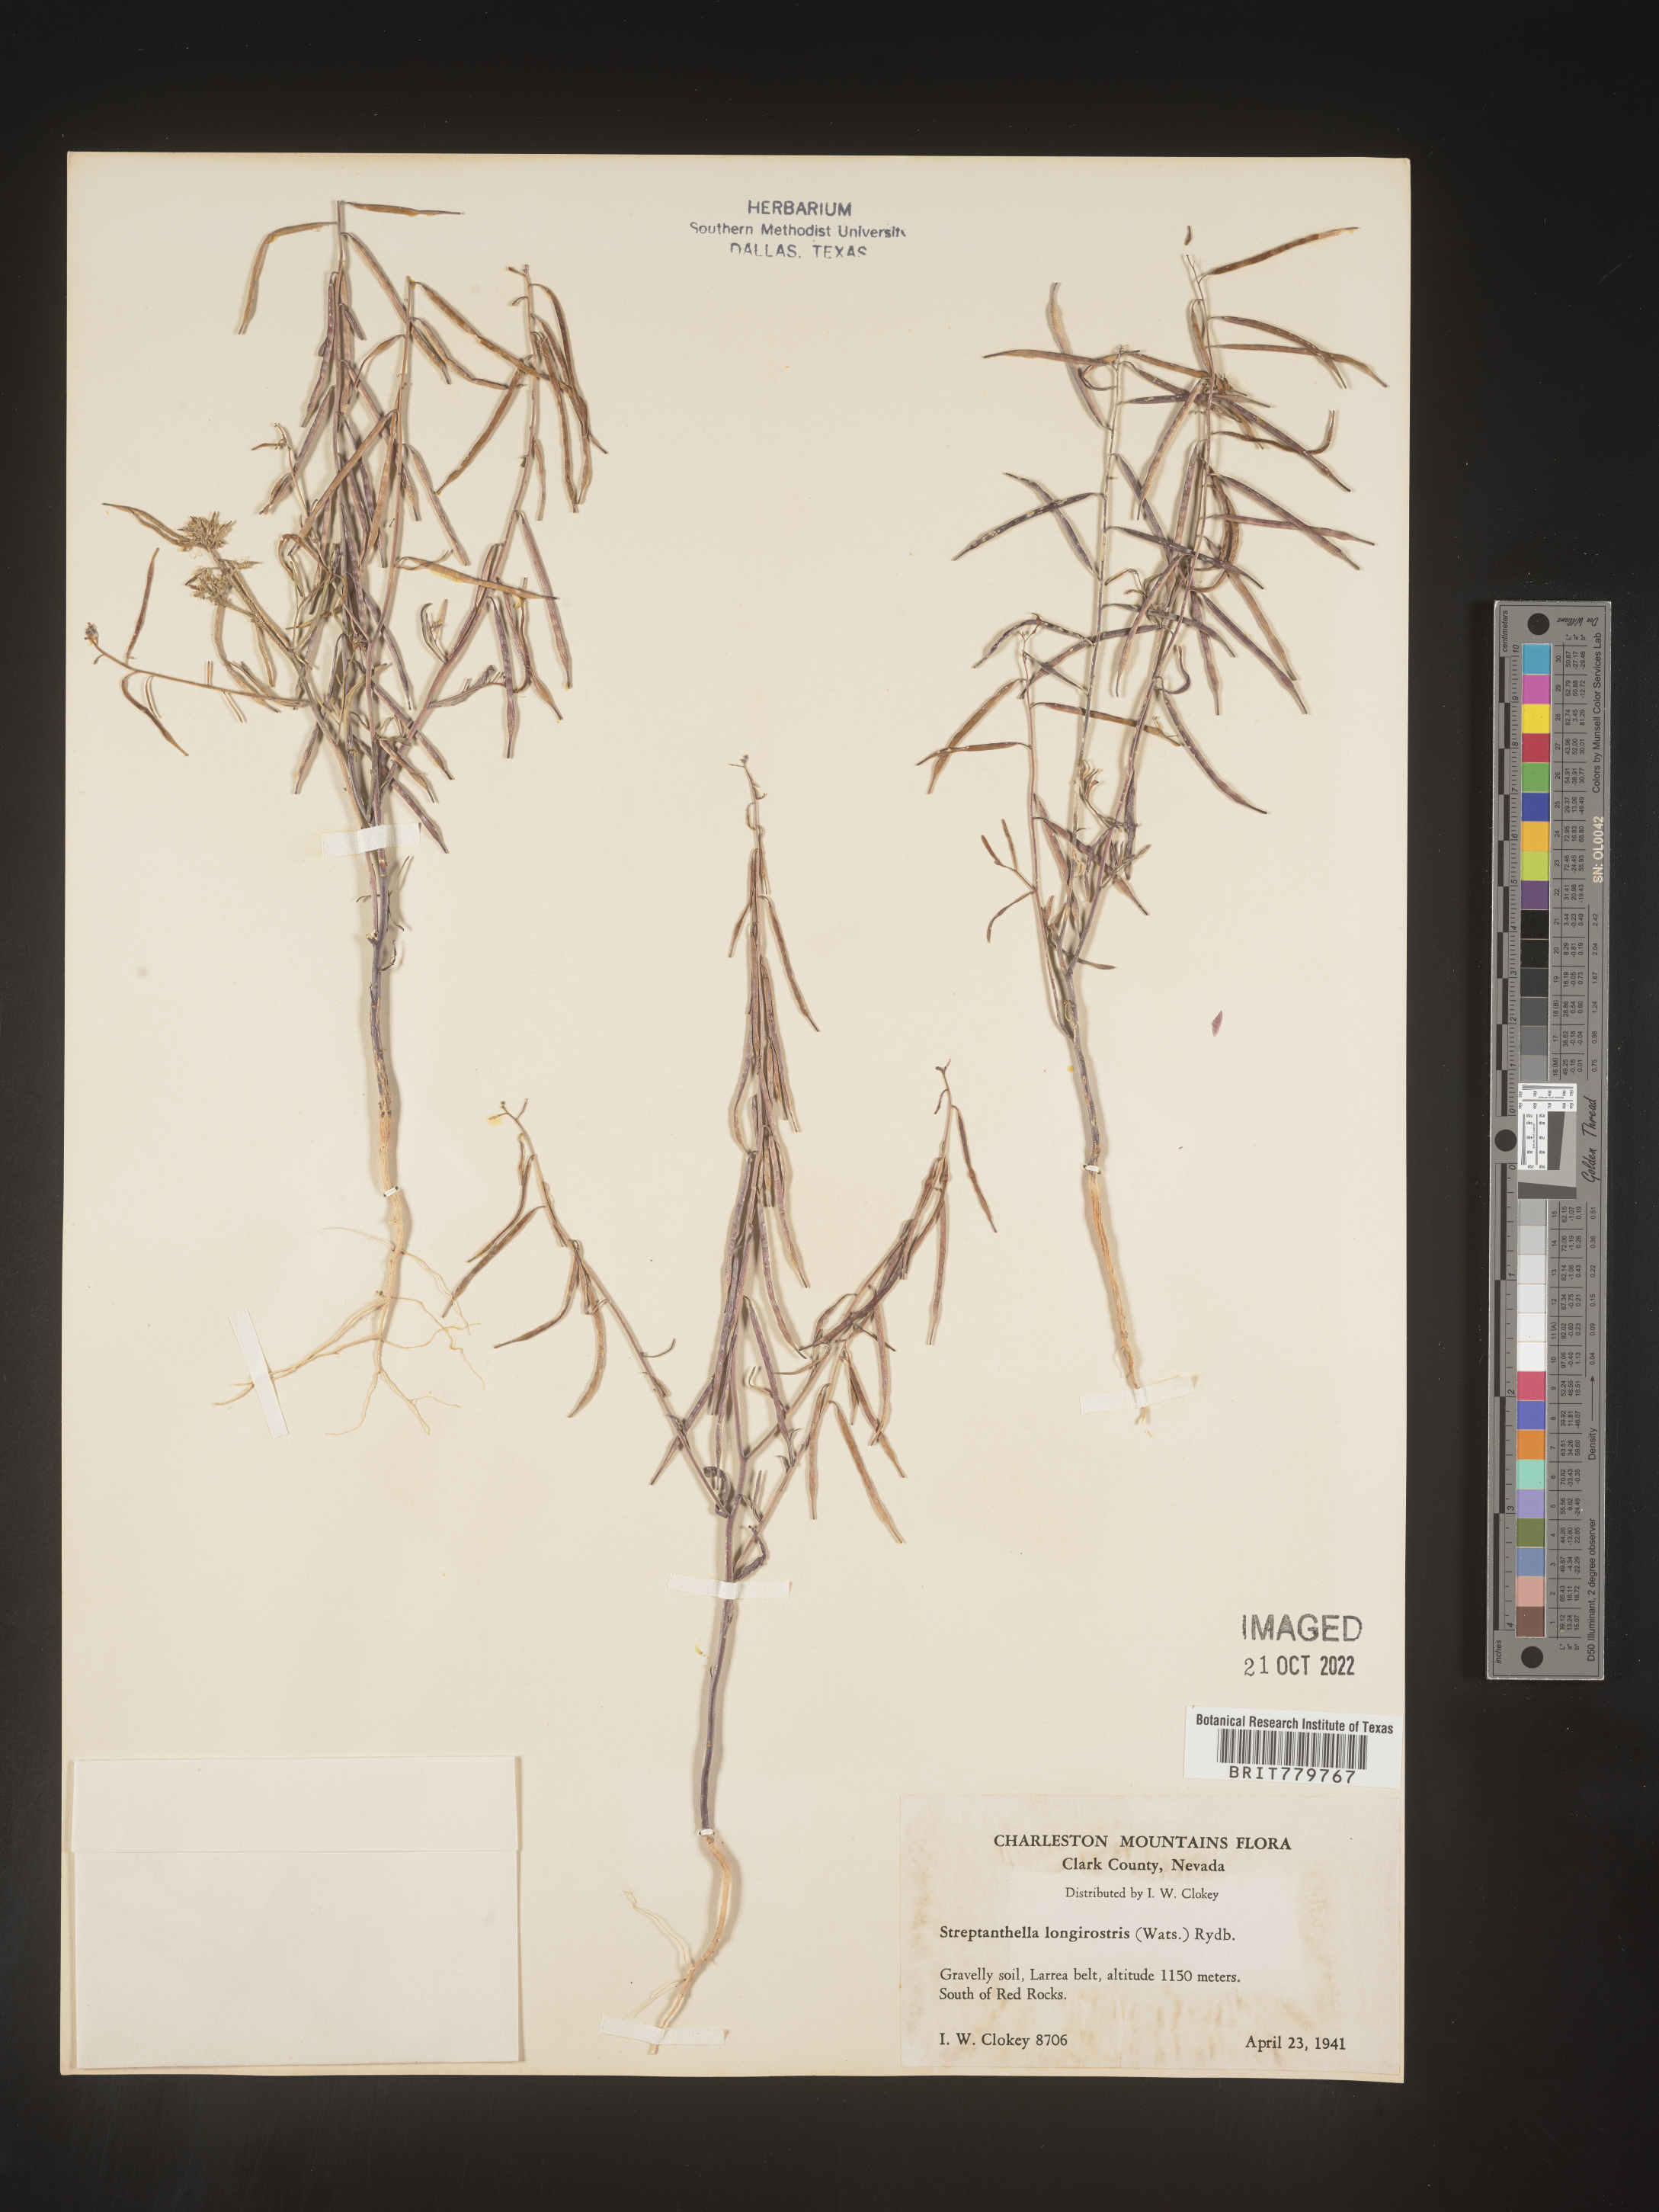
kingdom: Plantae
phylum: Tracheophyta
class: Magnoliopsida
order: Brassicales
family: Brassicaceae
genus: Streptanthus
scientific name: Streptanthus
